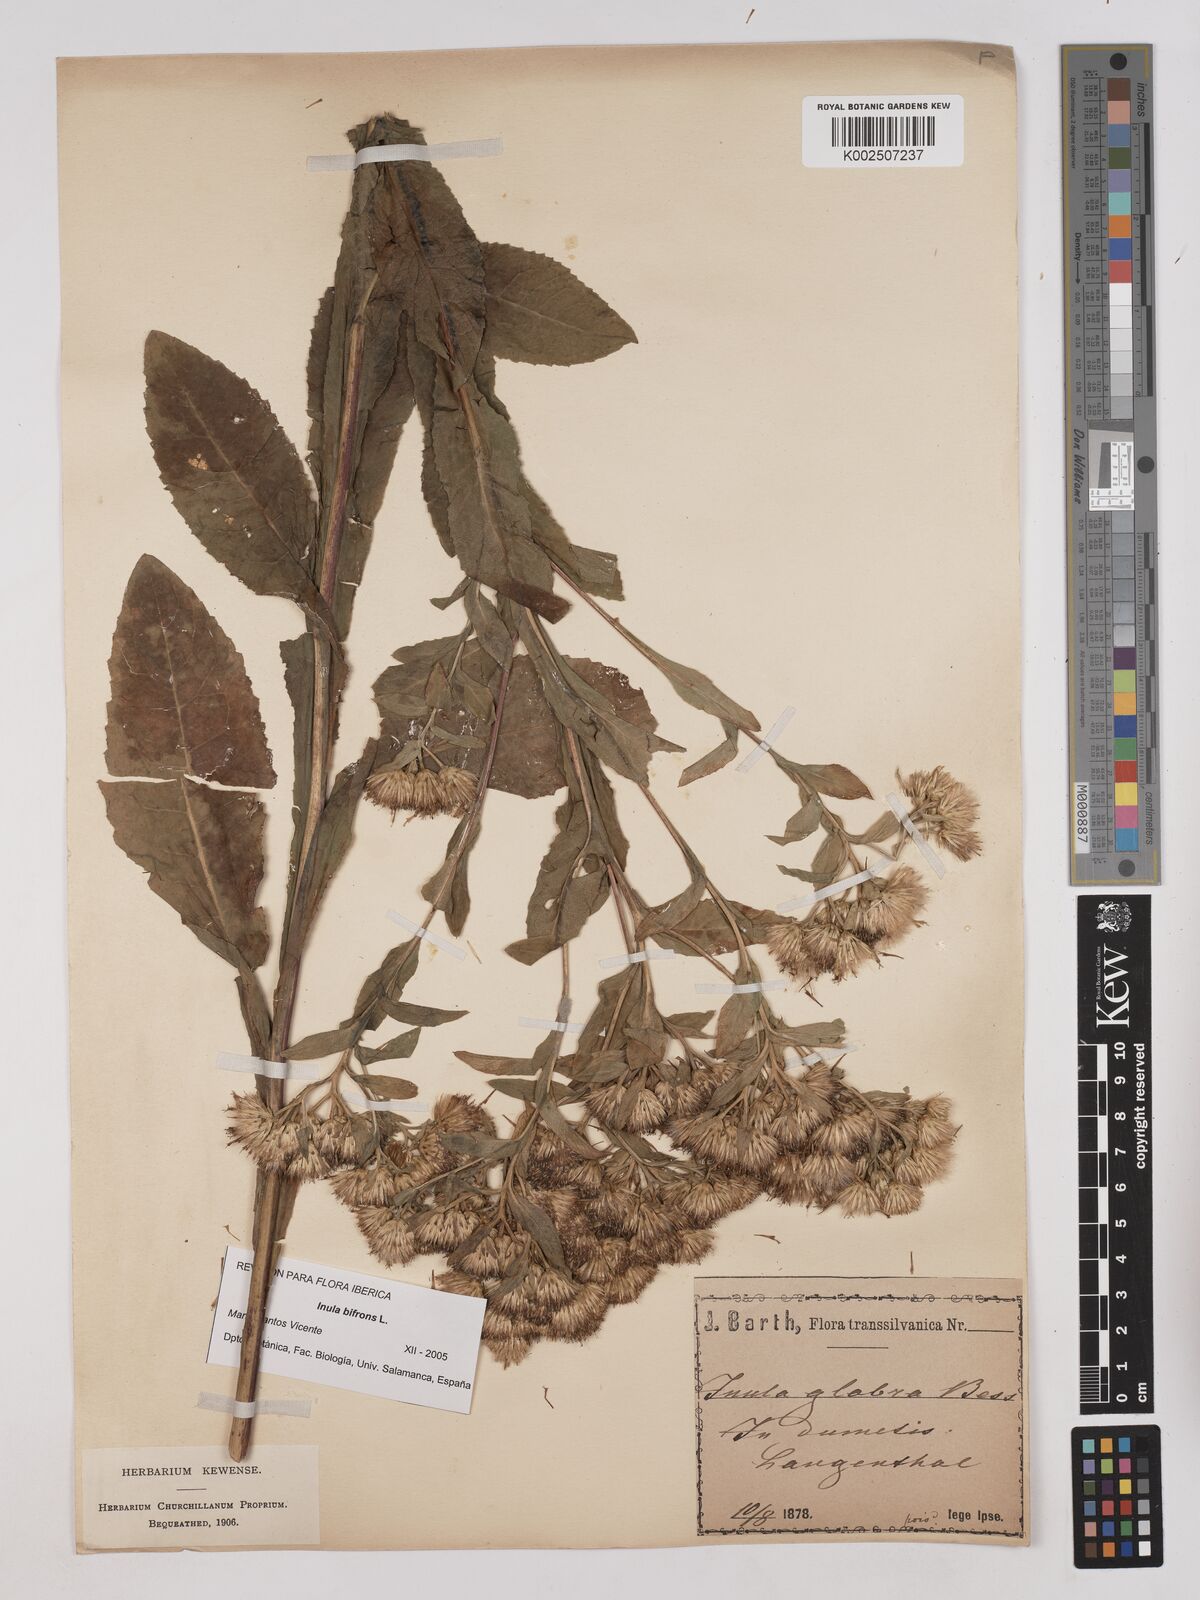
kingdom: Plantae
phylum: Tracheophyta
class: Magnoliopsida
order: Asterales
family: Asteraceae
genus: Pentanema
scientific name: Pentanema bifrons
